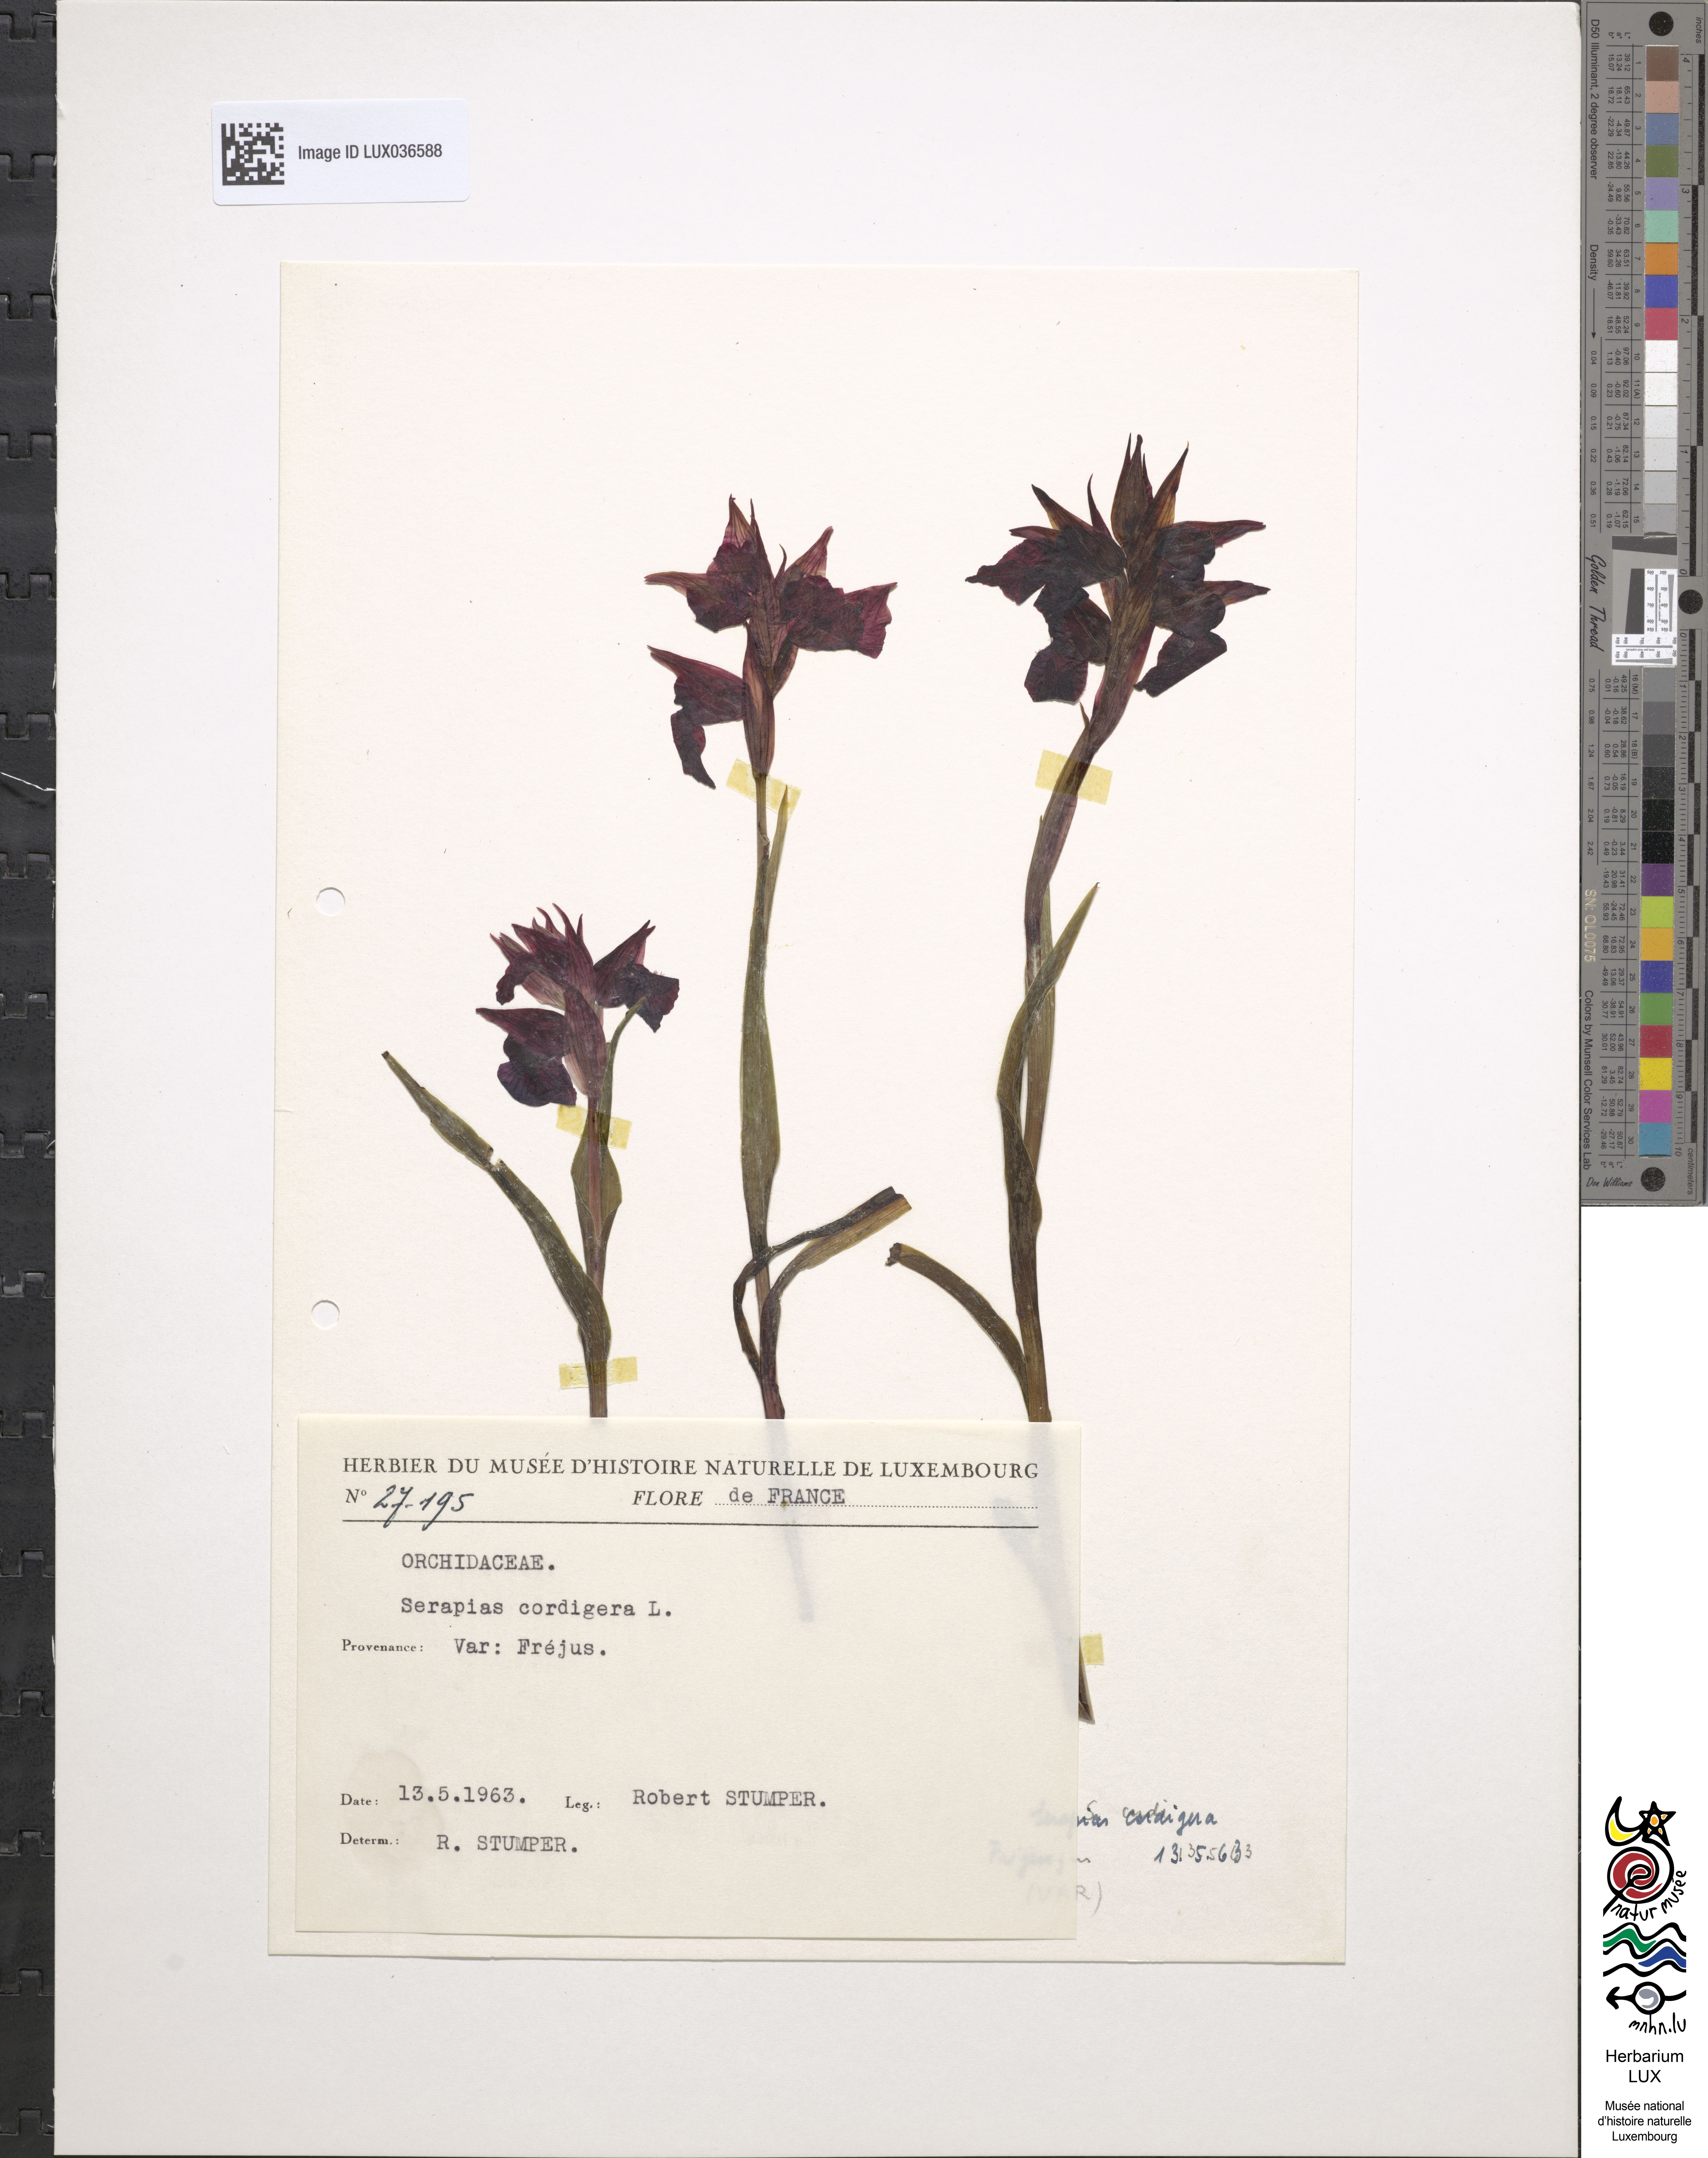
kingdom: Plantae
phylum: Tracheophyta
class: Liliopsida
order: Asparagales
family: Orchidaceae
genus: Serapias
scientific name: Serapias cordigera
